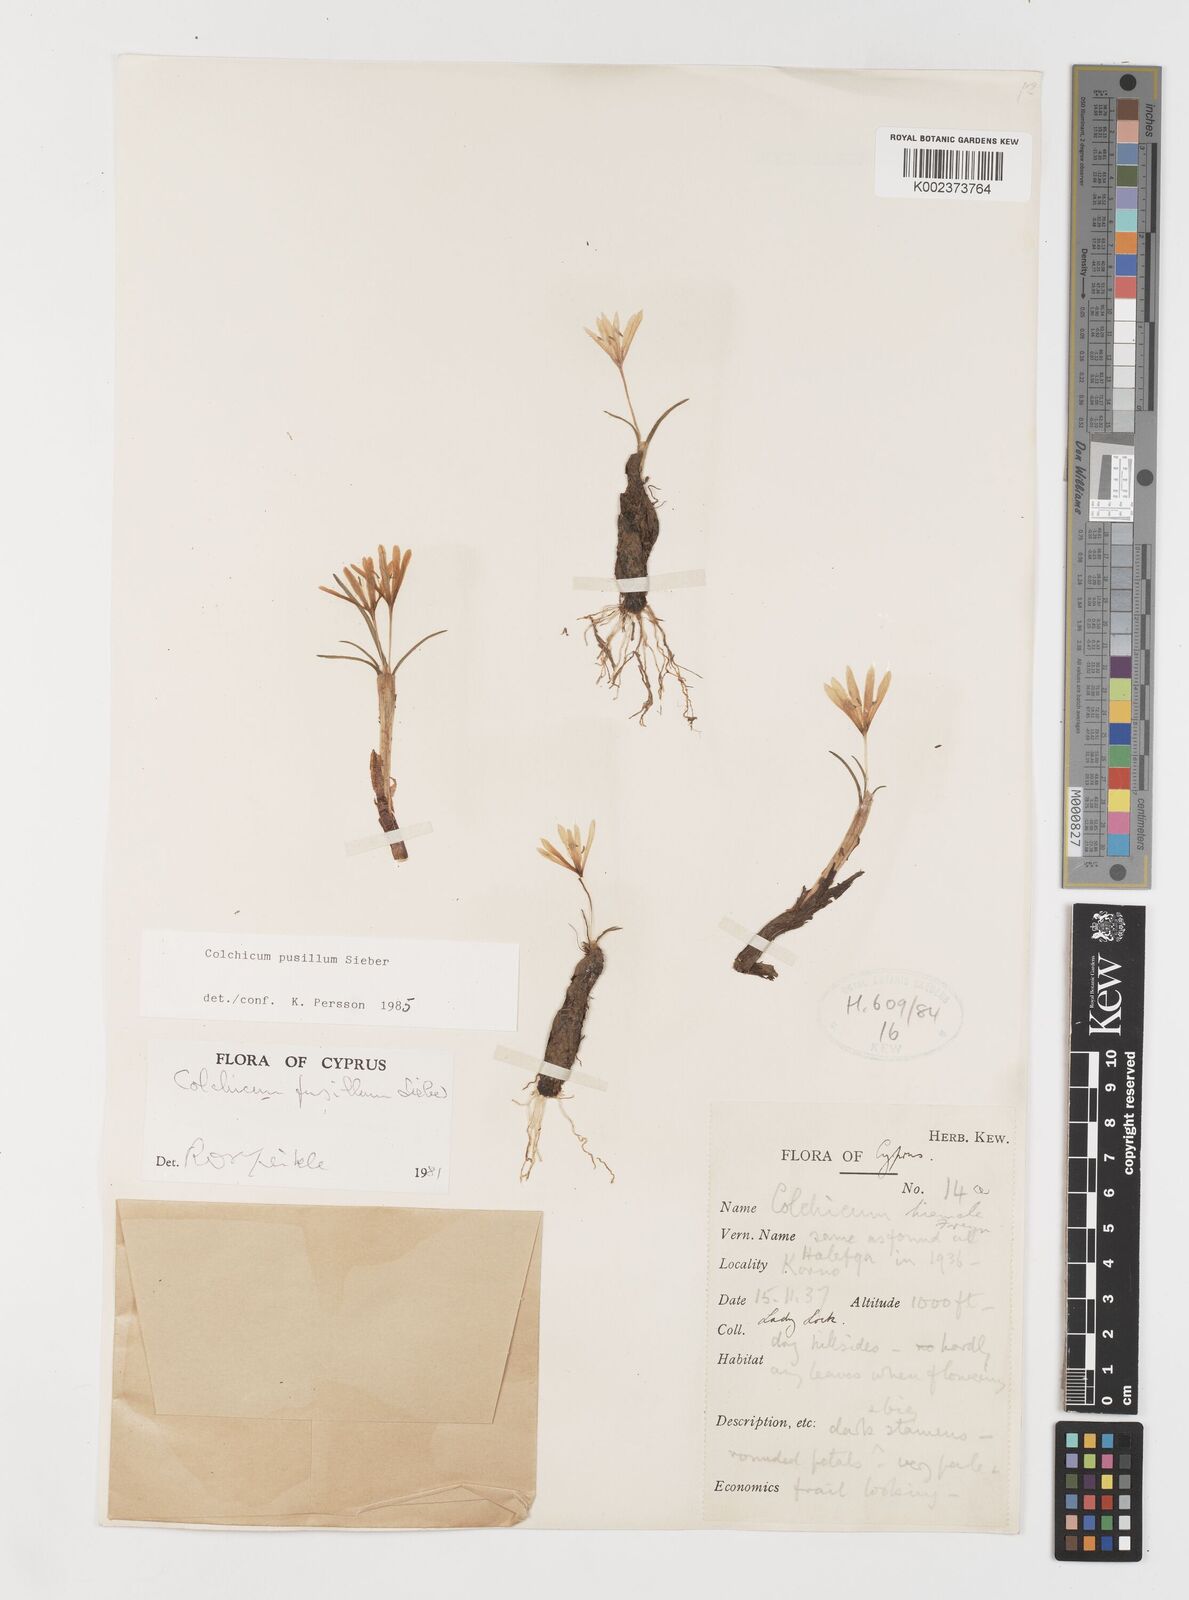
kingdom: Plantae
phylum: Tracheophyta
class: Liliopsida
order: Liliales
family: Colchicaceae
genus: Colchicum
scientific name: Colchicum pusillum
